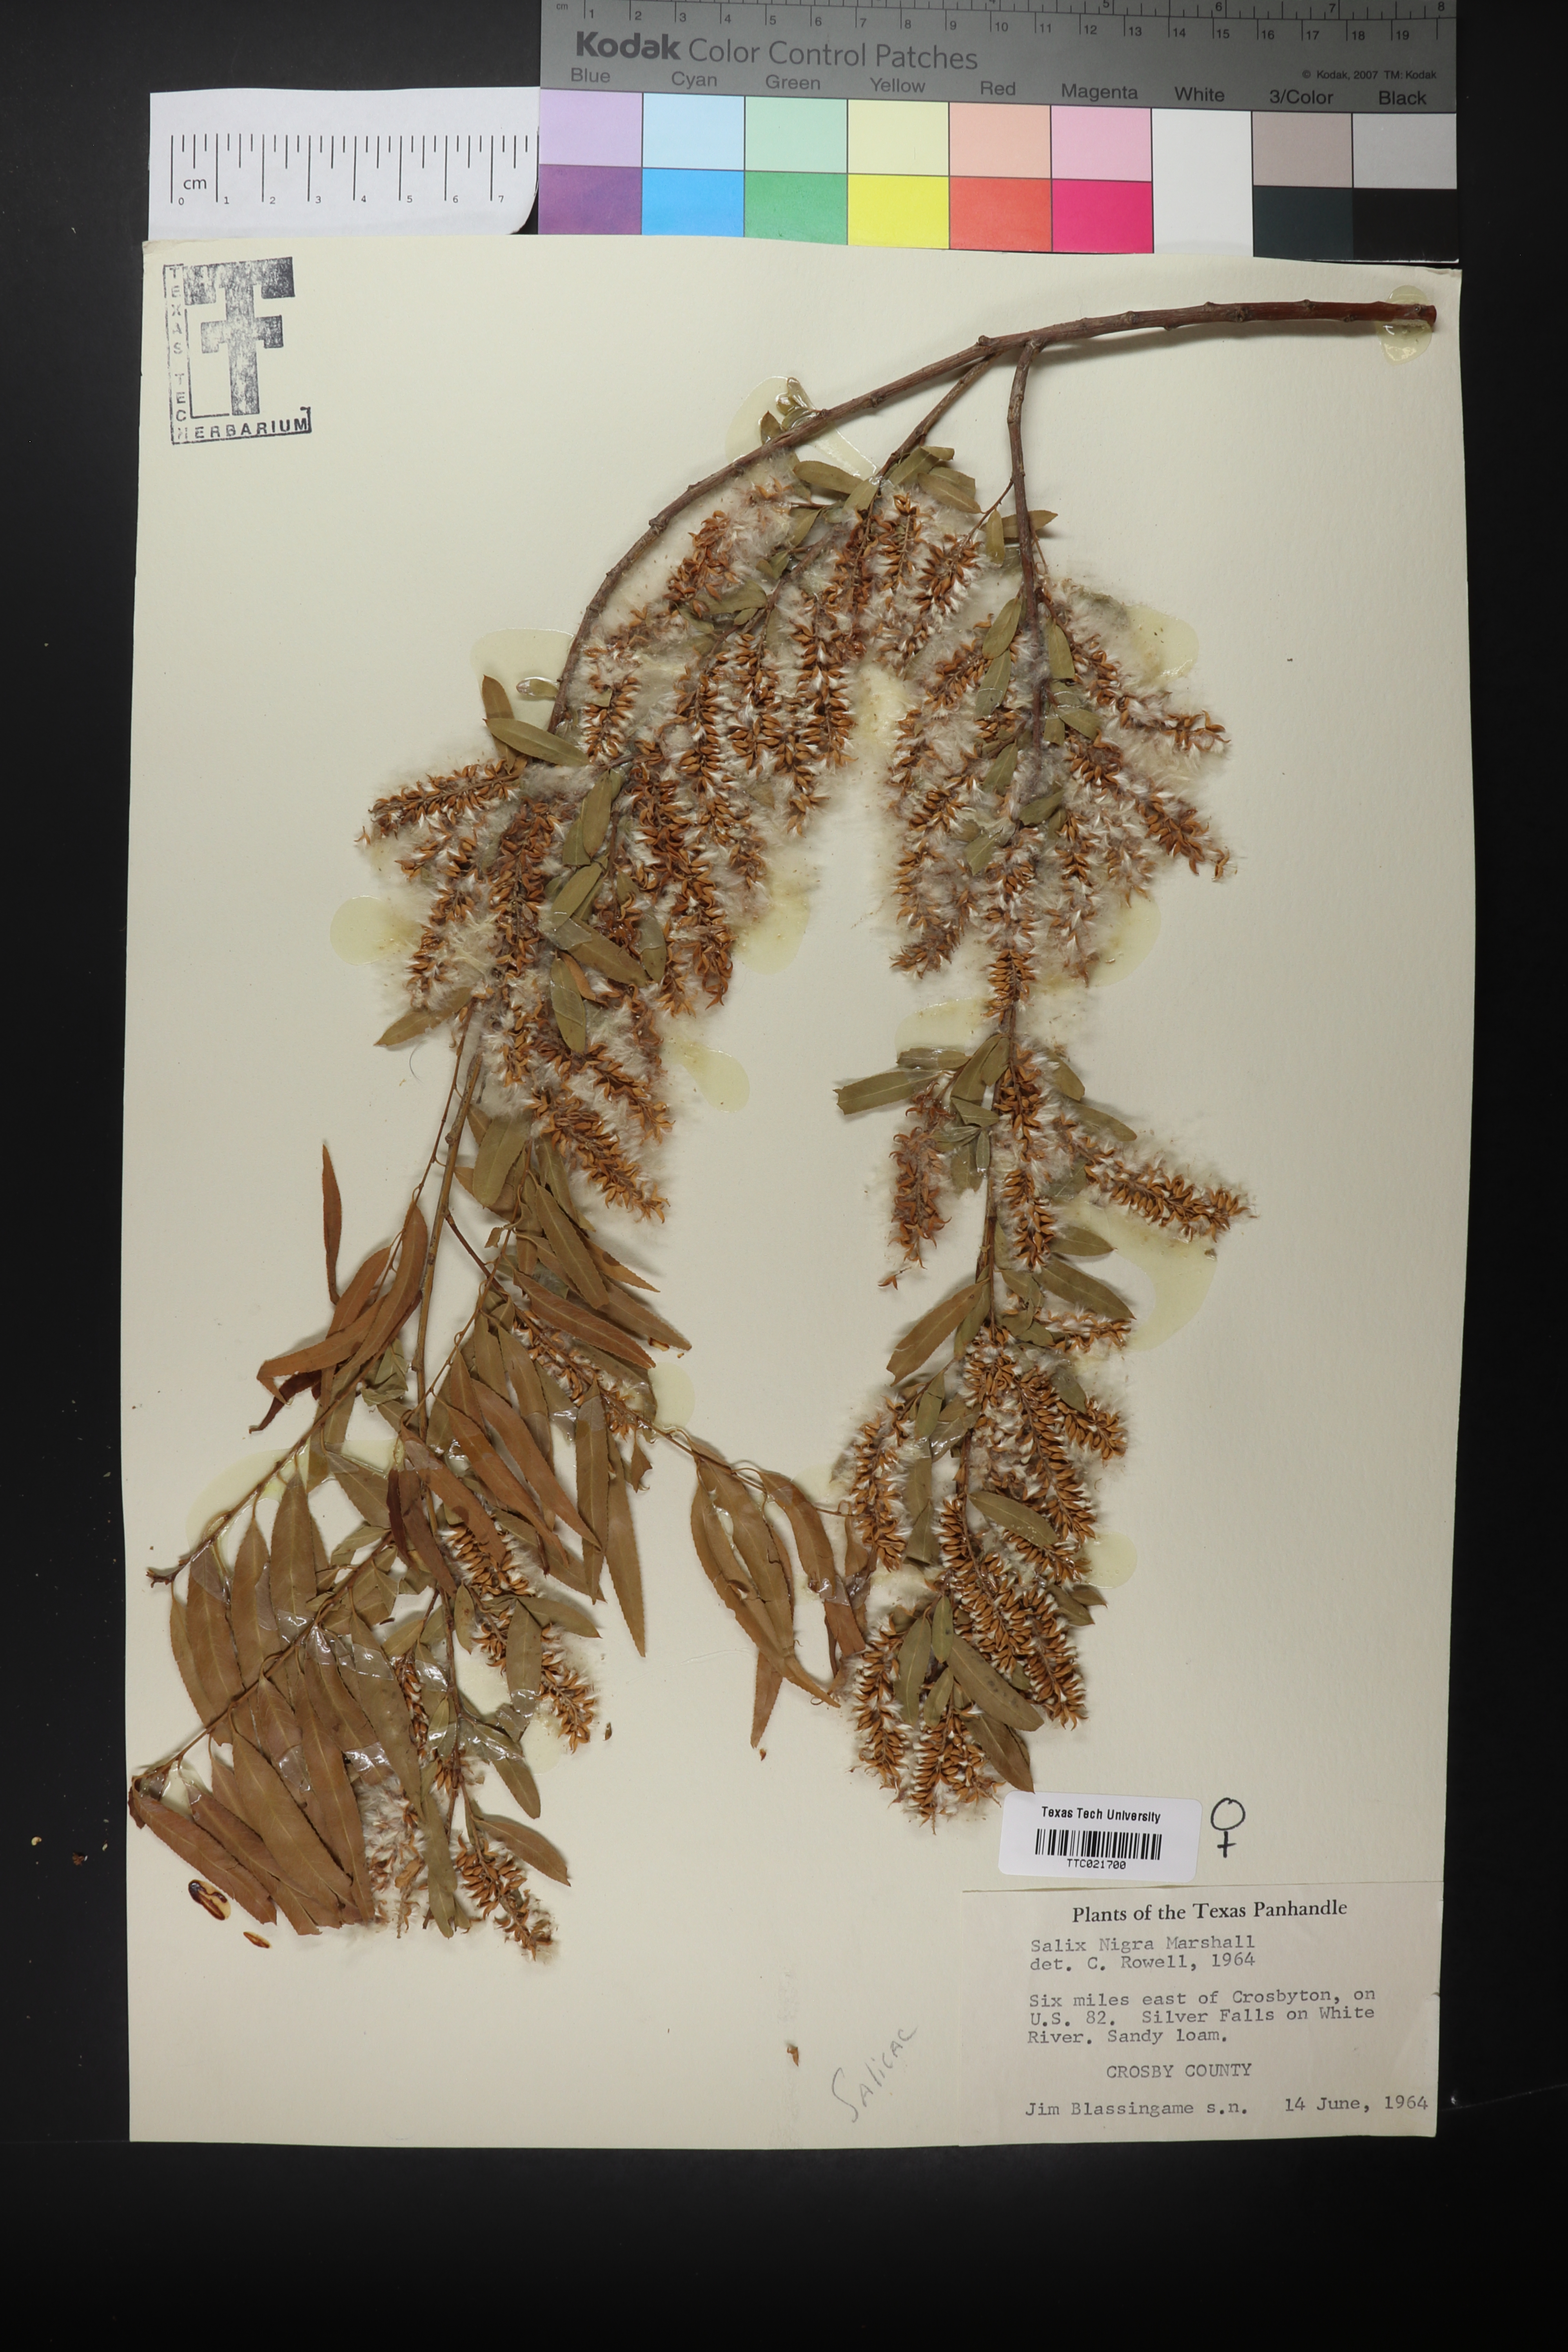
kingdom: Plantae
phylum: Tracheophyta
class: Magnoliopsida
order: Malpighiales
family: Salicaceae
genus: Salix
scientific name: Salix nigra
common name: Black willow
